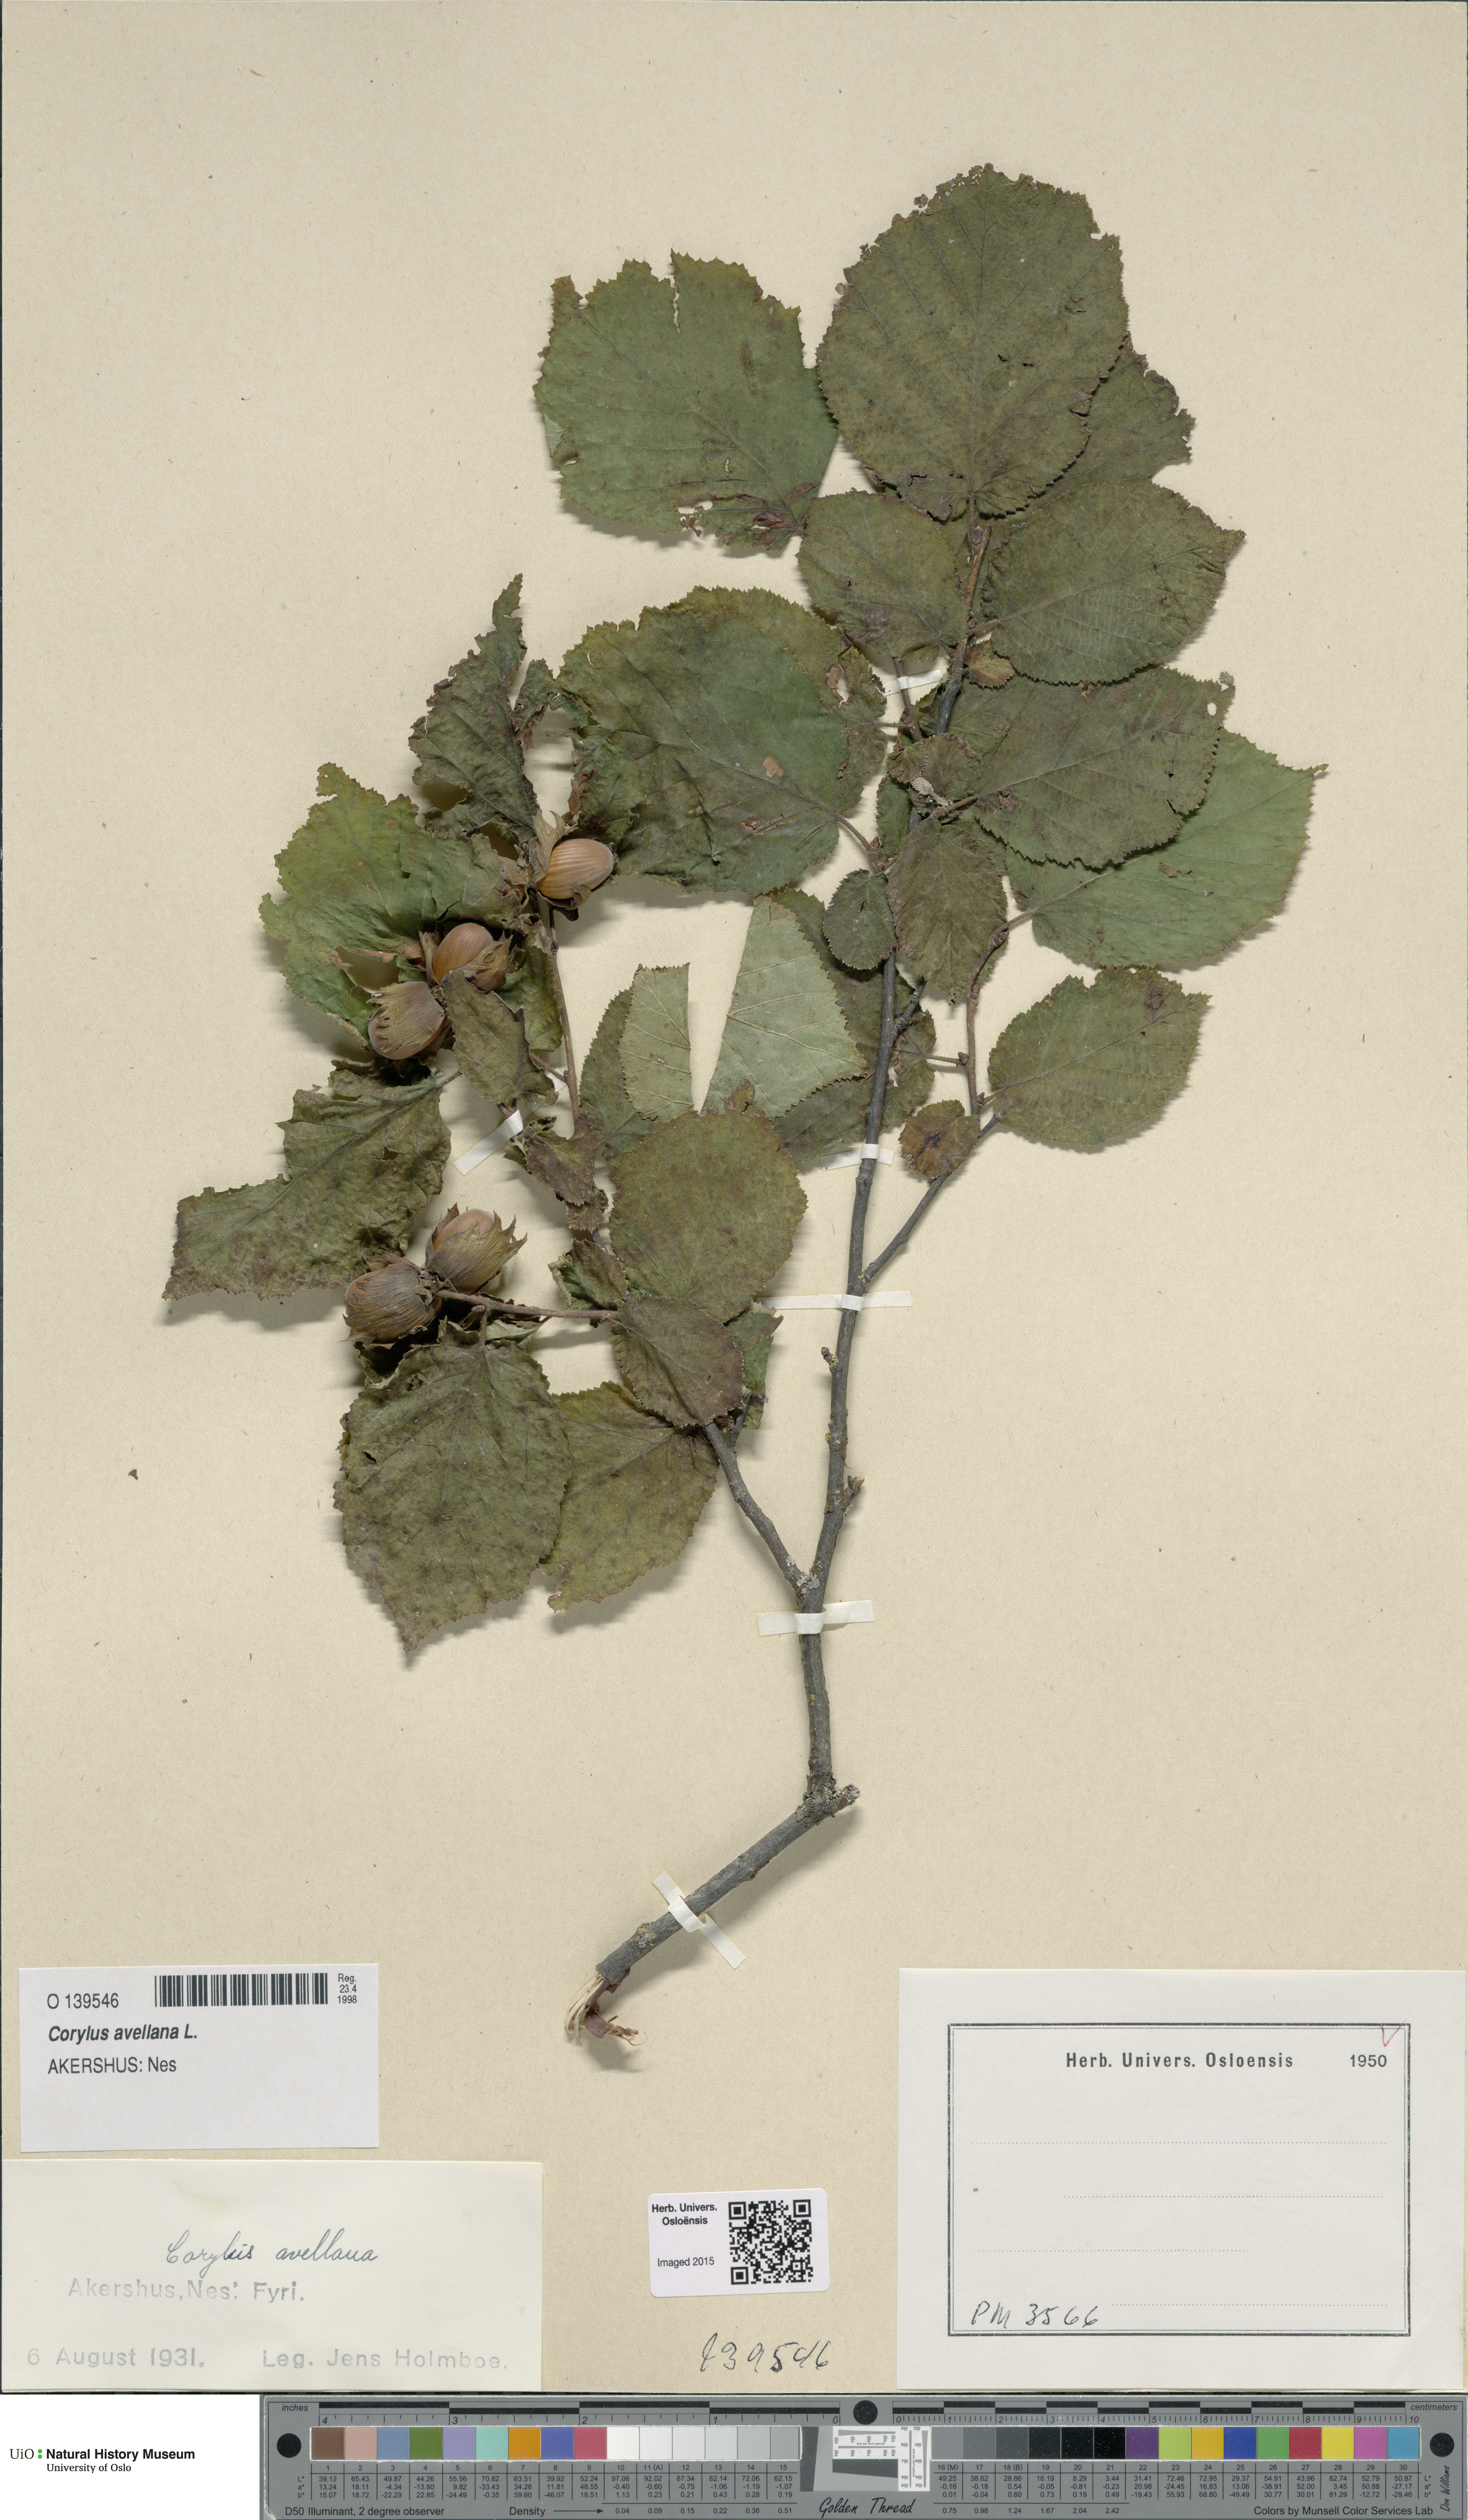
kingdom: Plantae
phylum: Tracheophyta
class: Magnoliopsida
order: Fagales
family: Betulaceae
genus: Corylus
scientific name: Corylus avellana
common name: European hazel
